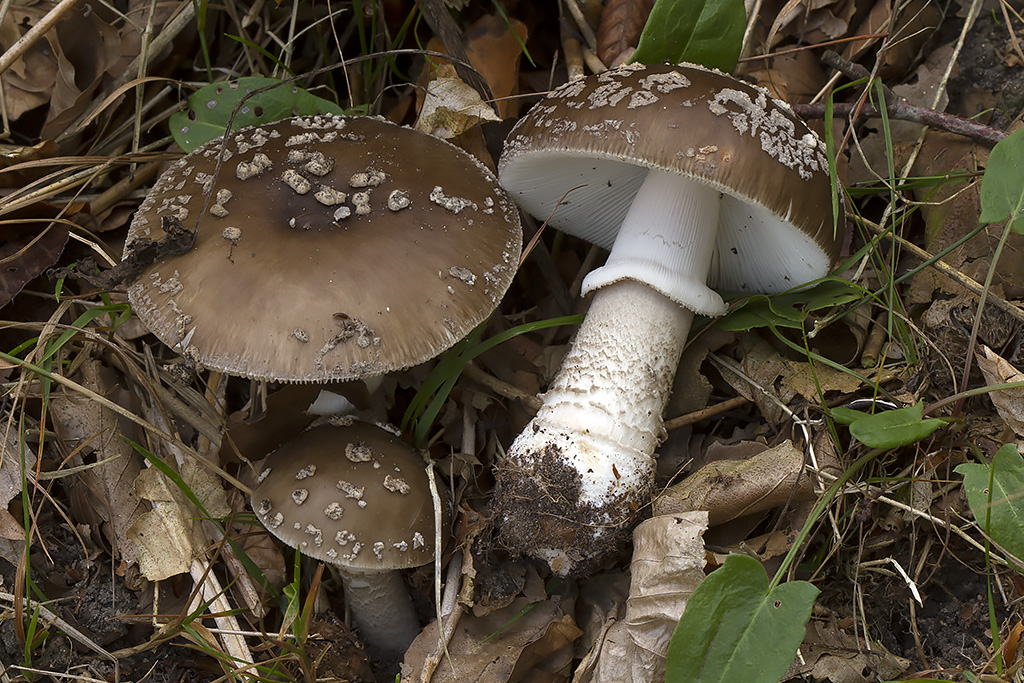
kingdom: Fungi
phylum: Basidiomycota
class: Agaricomycetes
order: Agaricales
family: Amanitaceae
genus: Amanita
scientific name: Amanita
